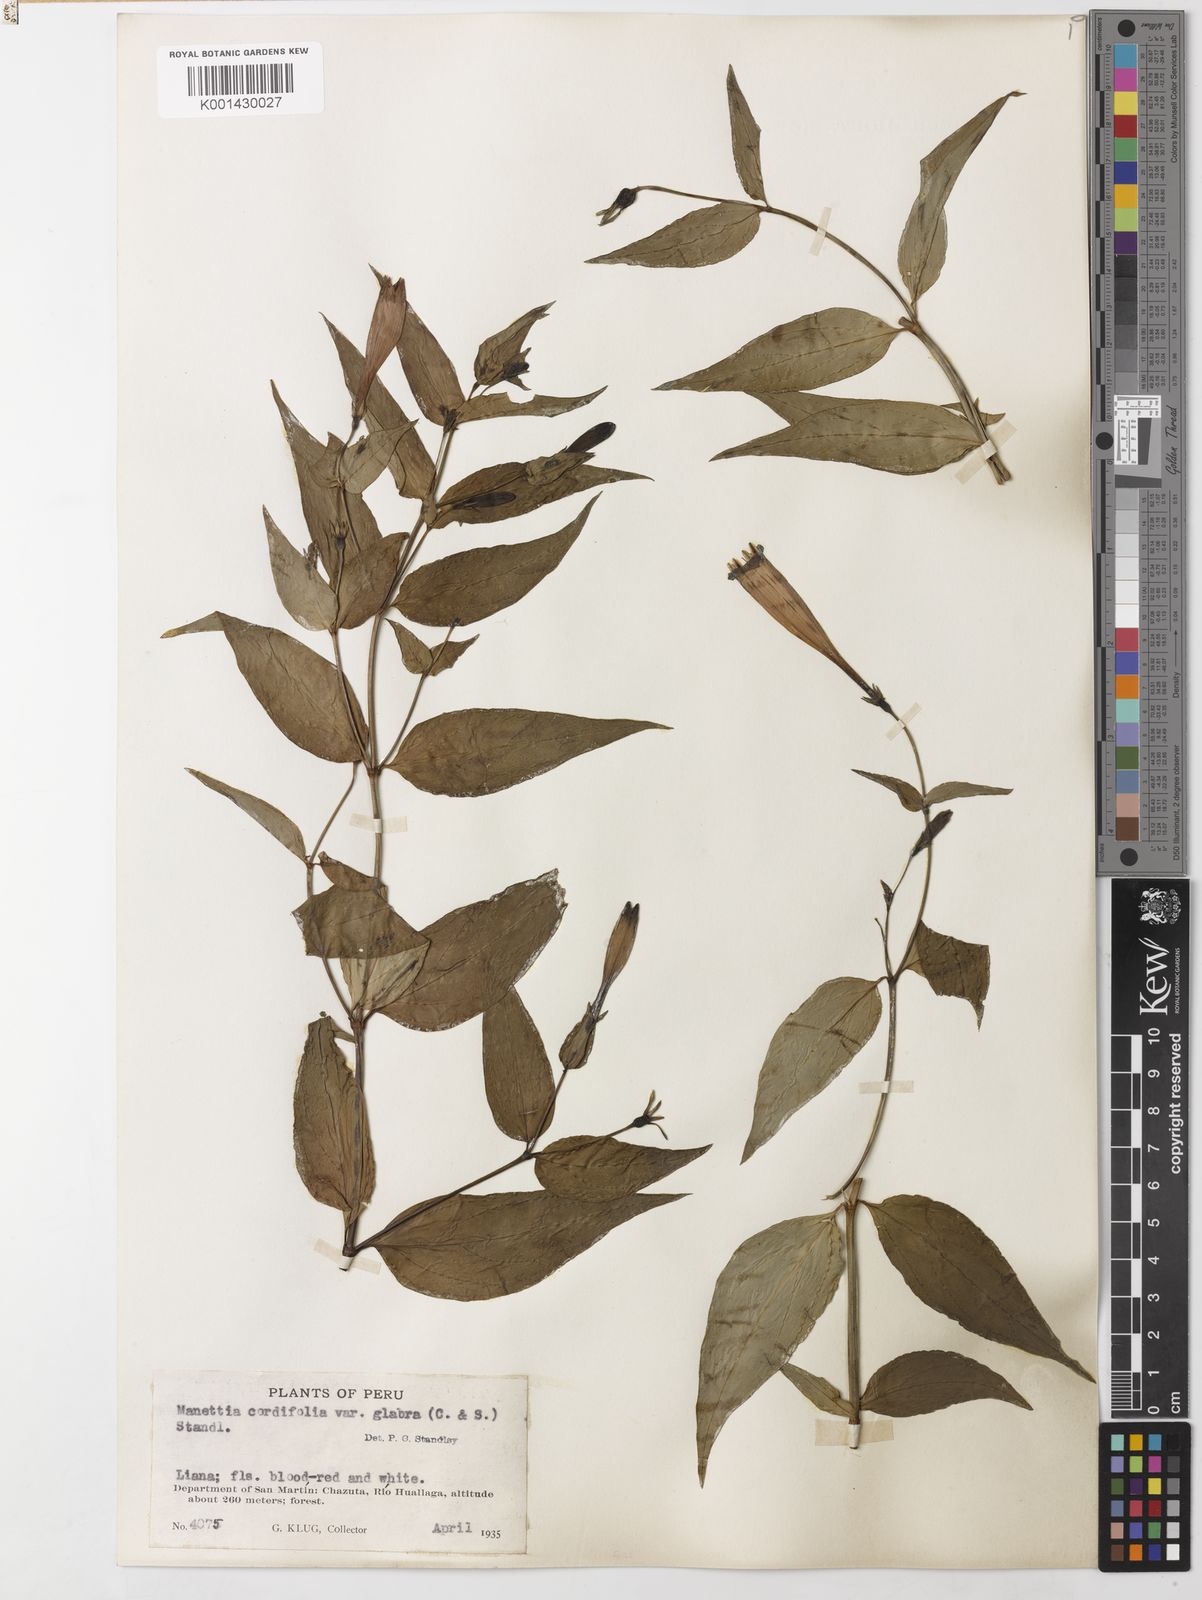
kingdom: Plantae
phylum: Tracheophyta
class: Magnoliopsida
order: Gentianales
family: Rubiaceae
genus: Manettia
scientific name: Manettia cordifolia
